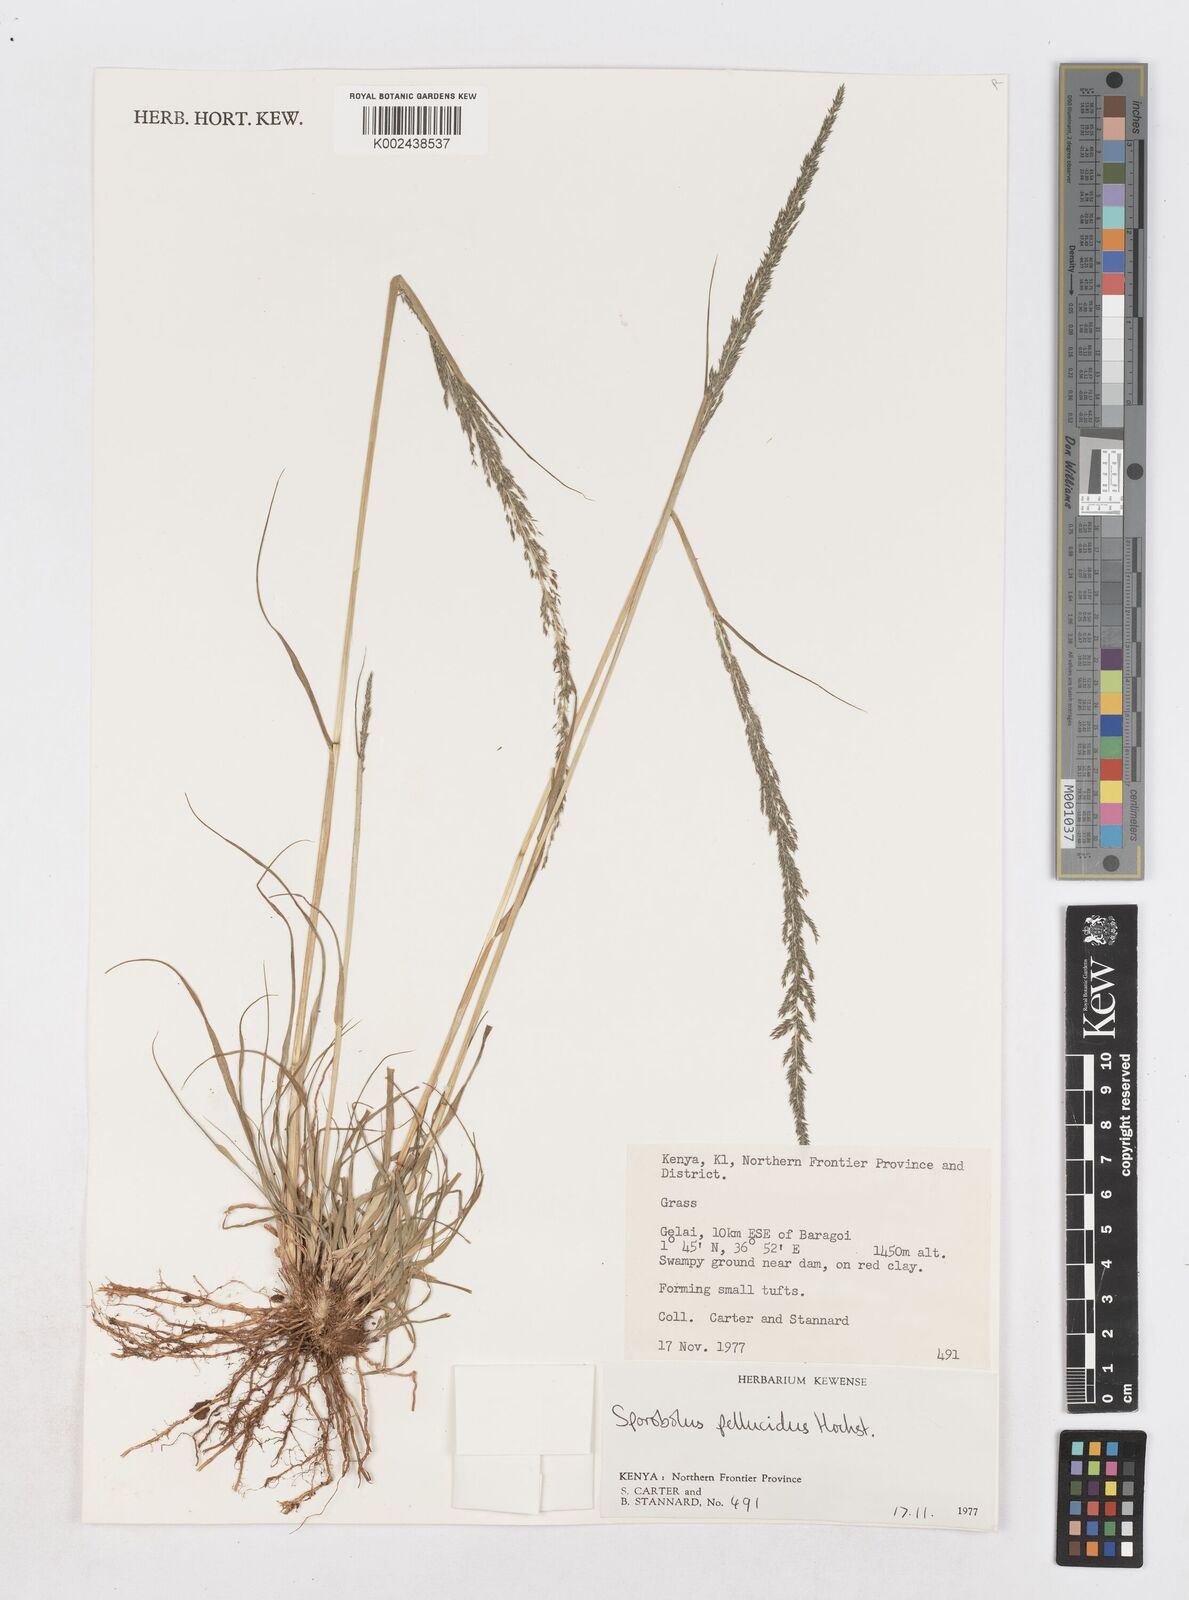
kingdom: Plantae
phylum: Tracheophyta
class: Liliopsida
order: Poales
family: Poaceae
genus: Sporobolus
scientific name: Sporobolus pellucidus
